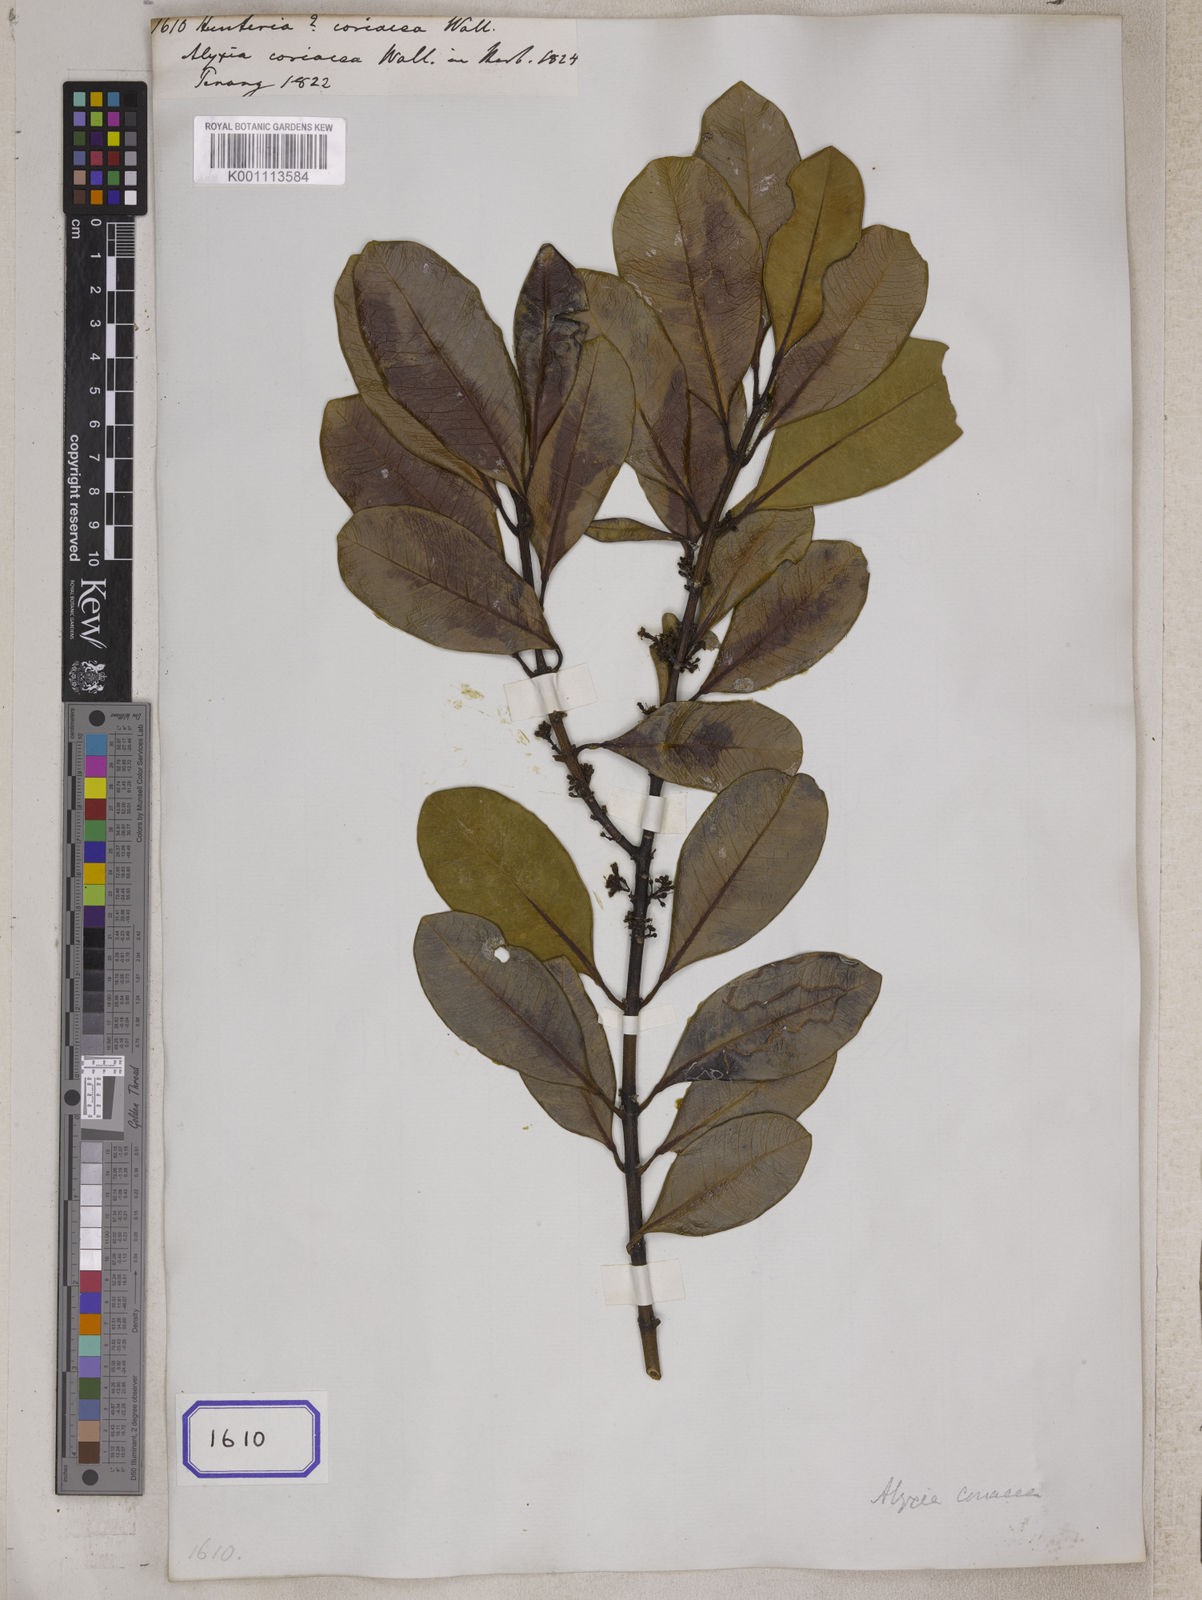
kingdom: Plantae
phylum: Tracheophyta
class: Magnoliopsida
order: Gentianales
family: Apocynaceae
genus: Hunteria
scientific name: Hunteria
